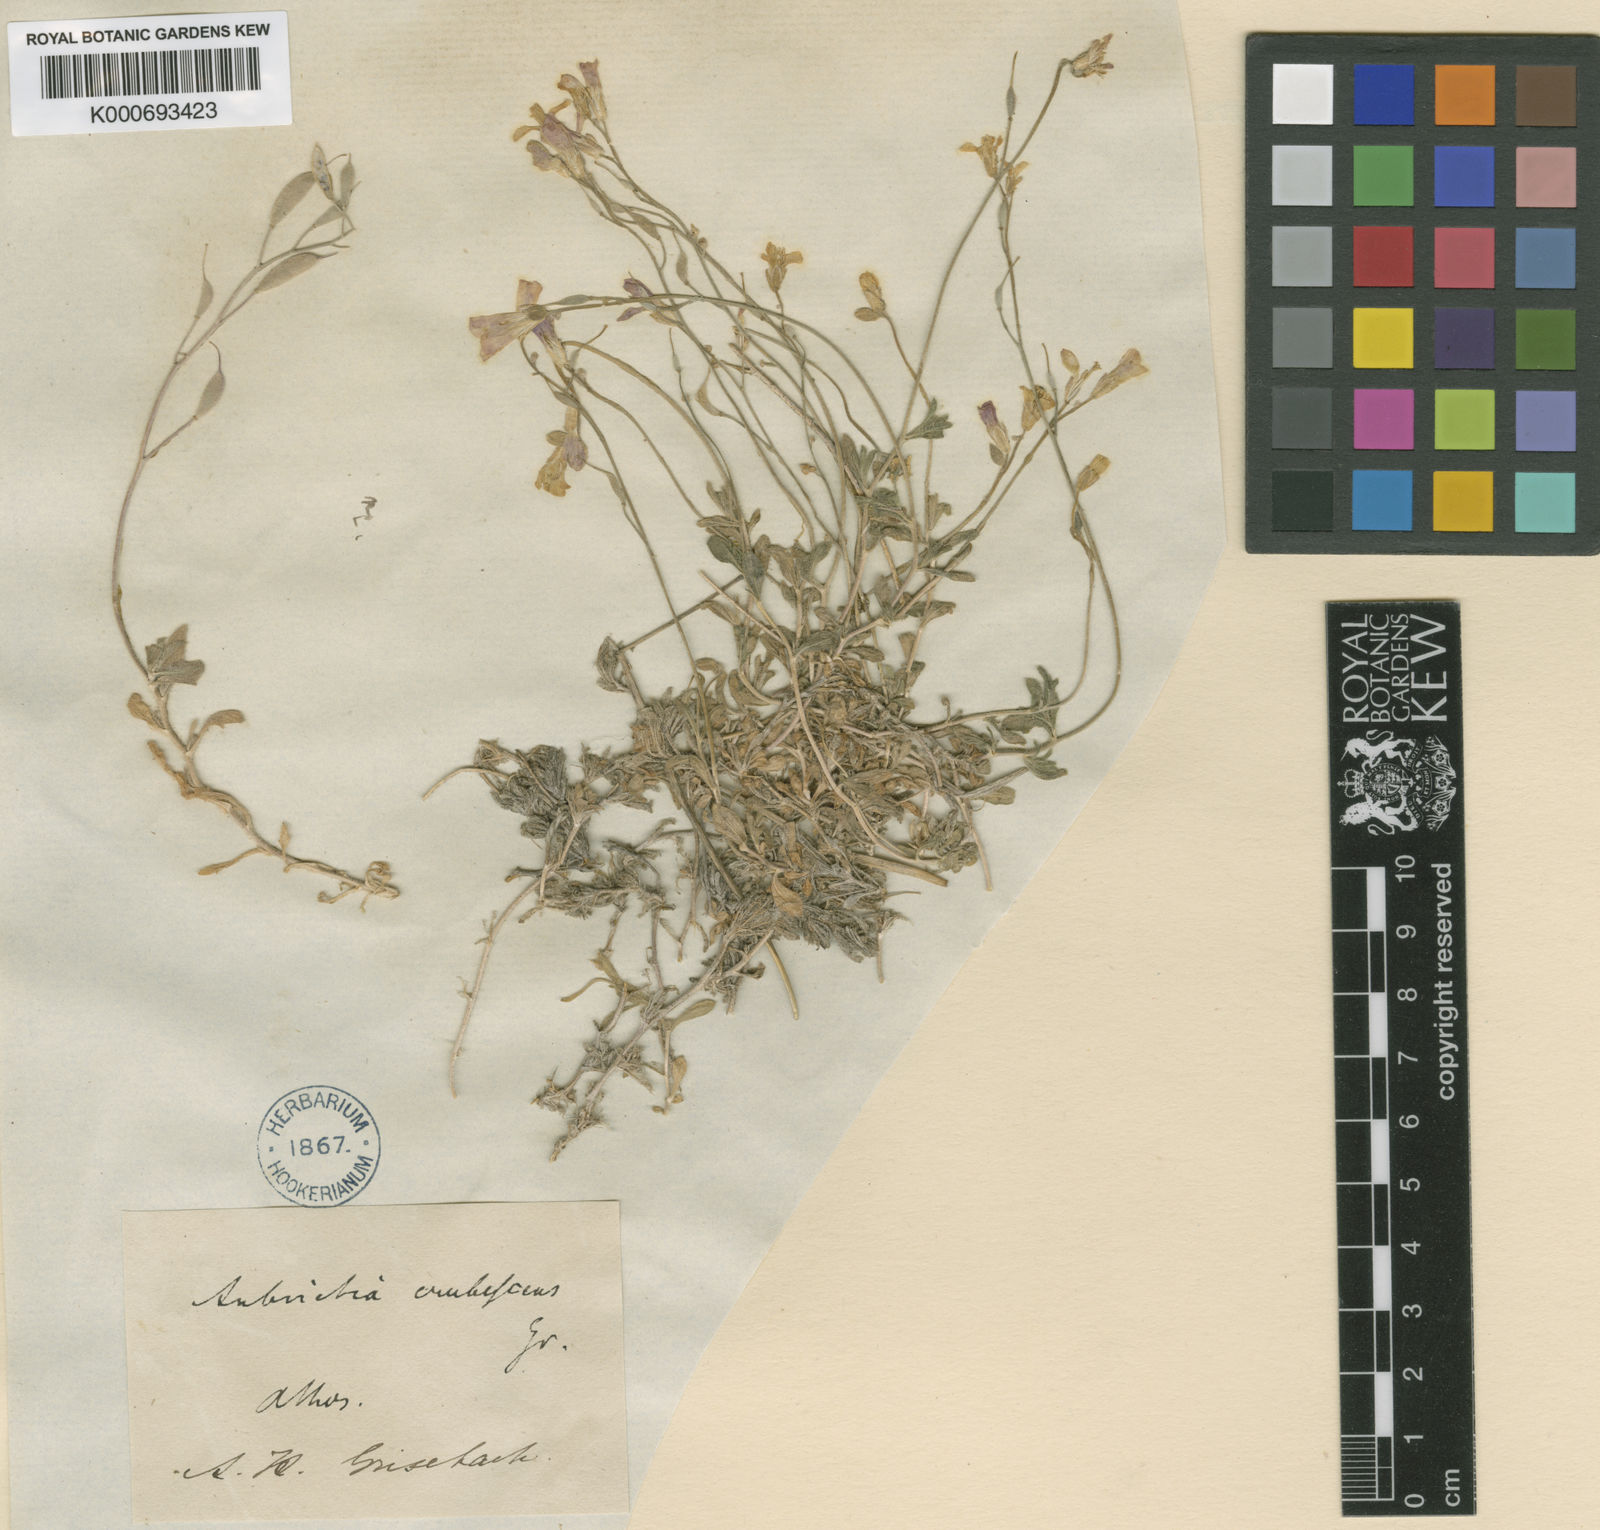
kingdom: Plantae
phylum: Tracheophyta
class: Magnoliopsida
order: Brassicales
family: Brassicaceae
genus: Aubrieta
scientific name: Aubrieta erubescens
